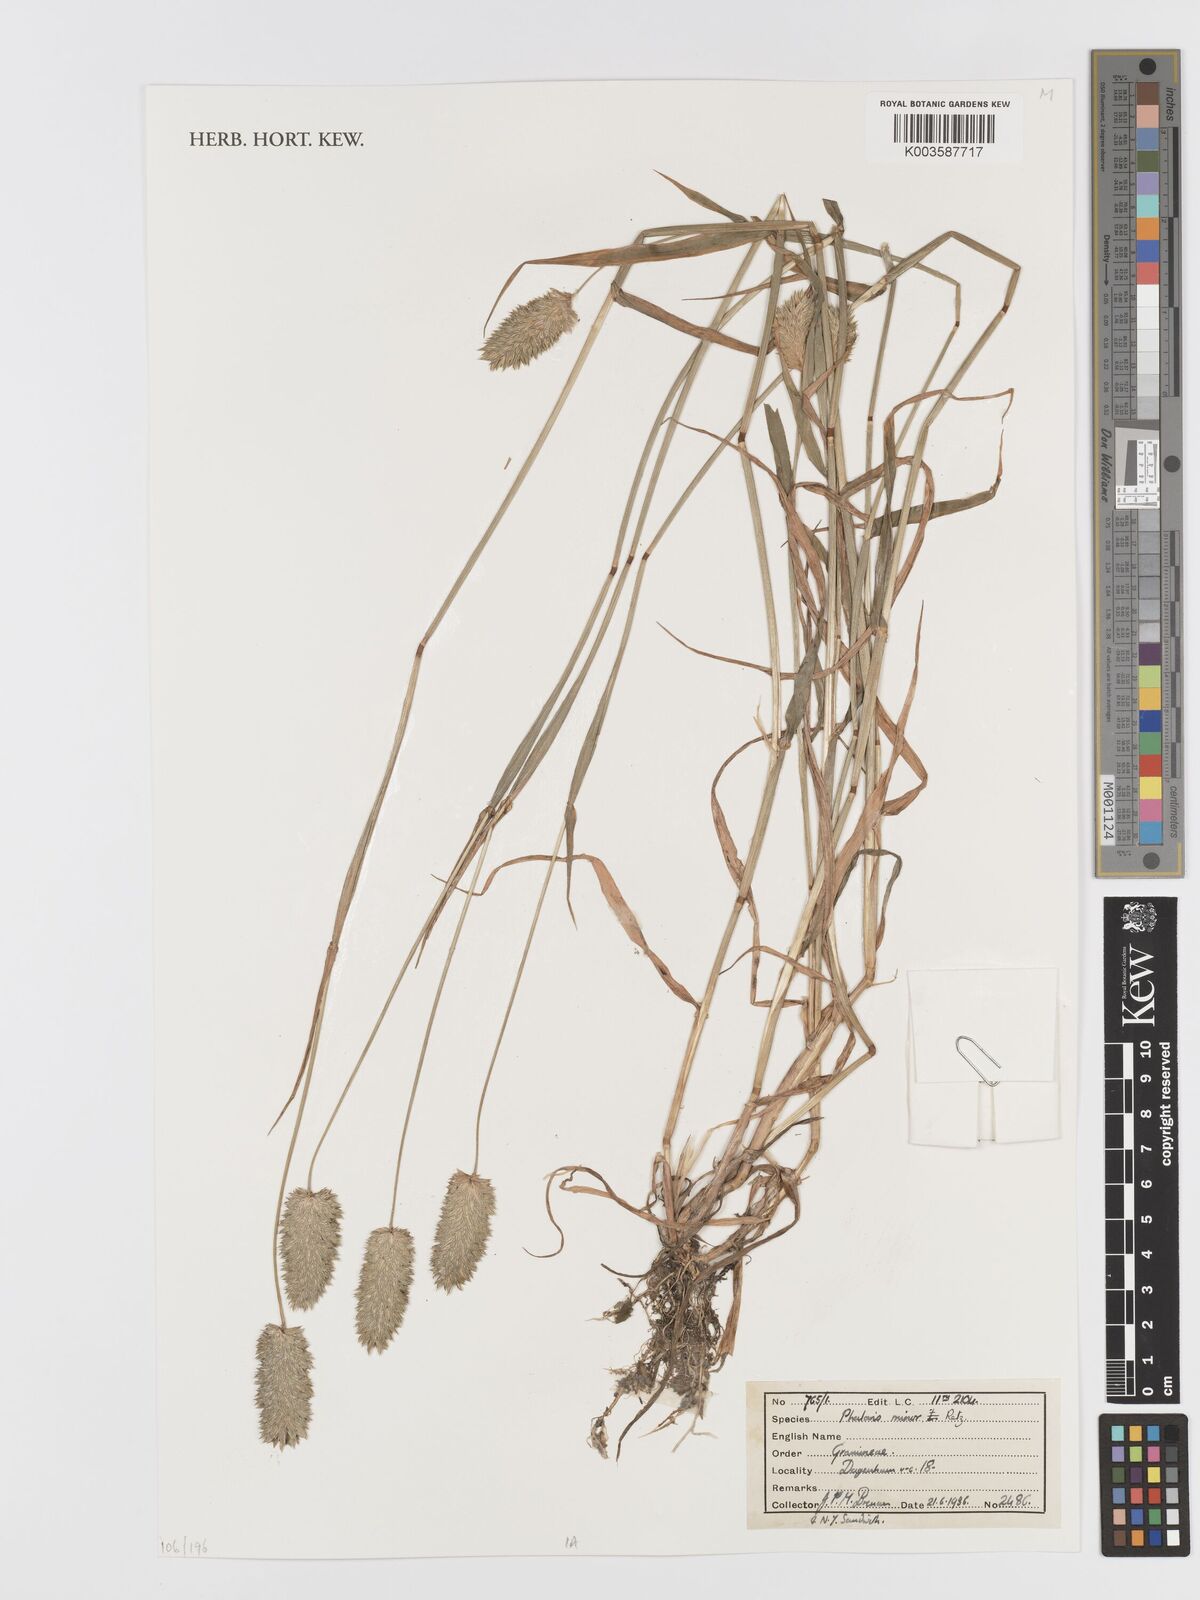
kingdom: Plantae
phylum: Tracheophyta
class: Liliopsida
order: Poales
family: Poaceae
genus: Phalaris
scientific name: Phalaris minor
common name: Littleseed canarygrass
